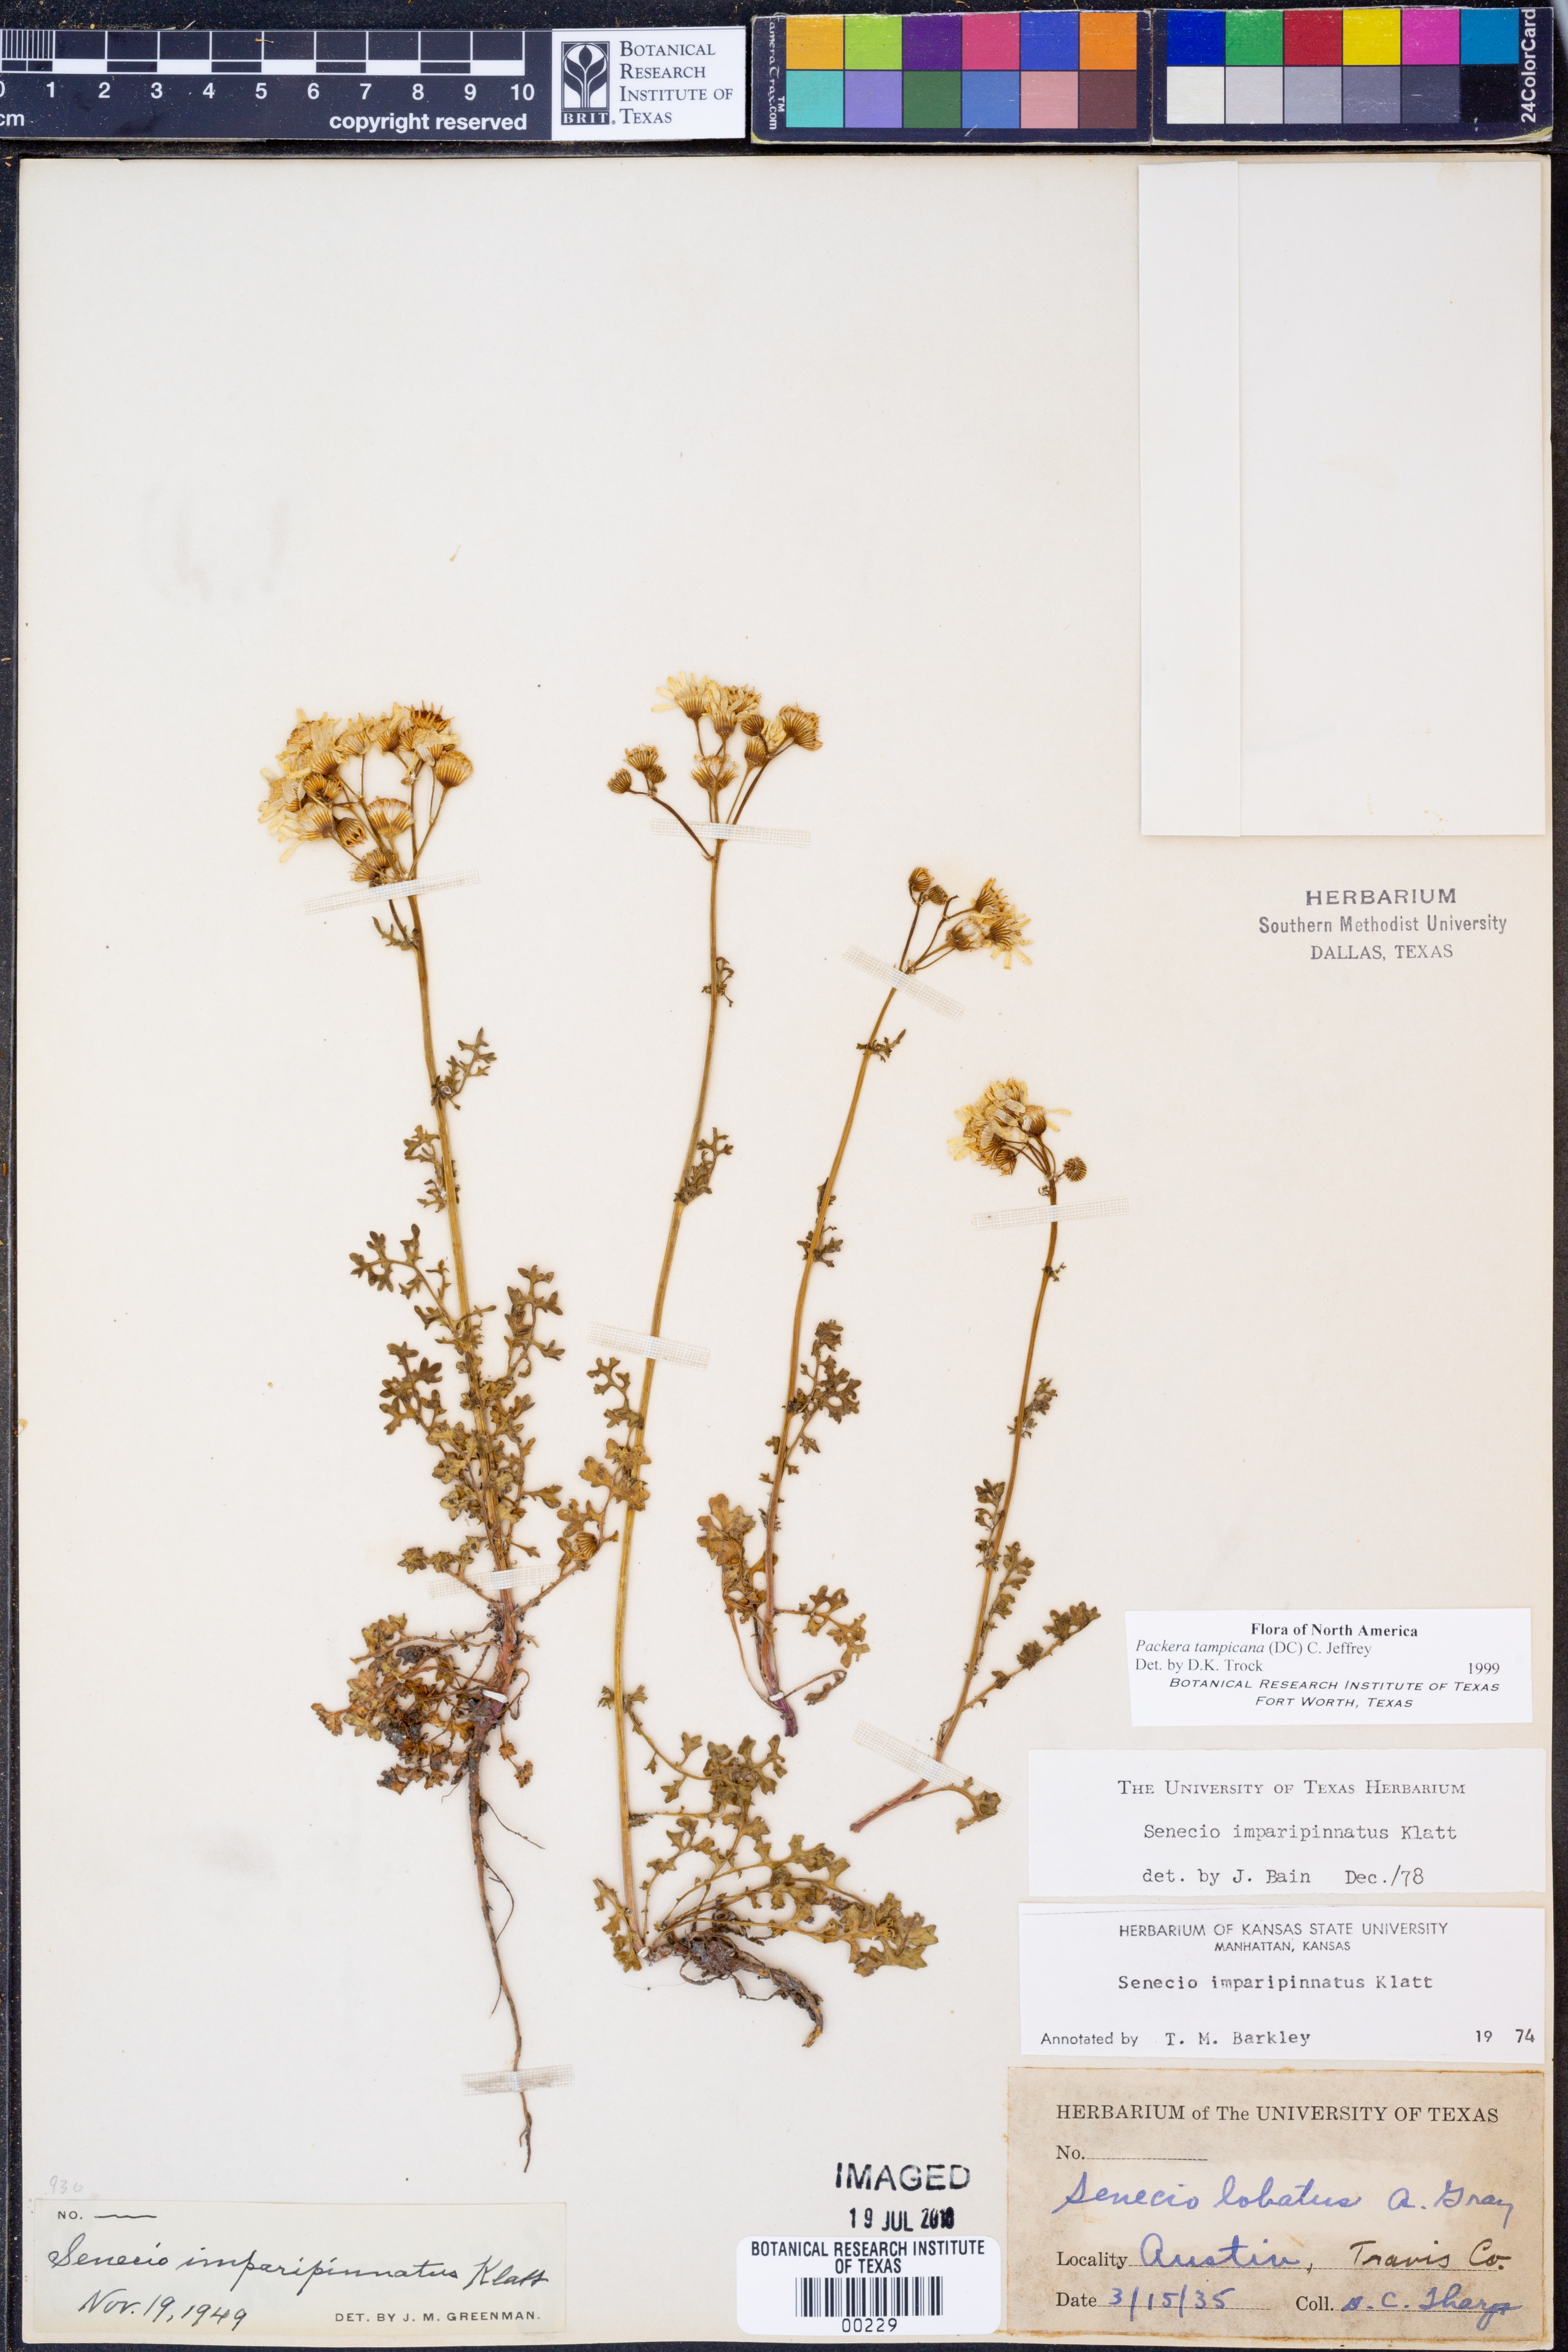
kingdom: Plantae
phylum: Tracheophyta
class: Magnoliopsida
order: Asterales
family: Asteraceae
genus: Packera
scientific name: Packera tampicana
